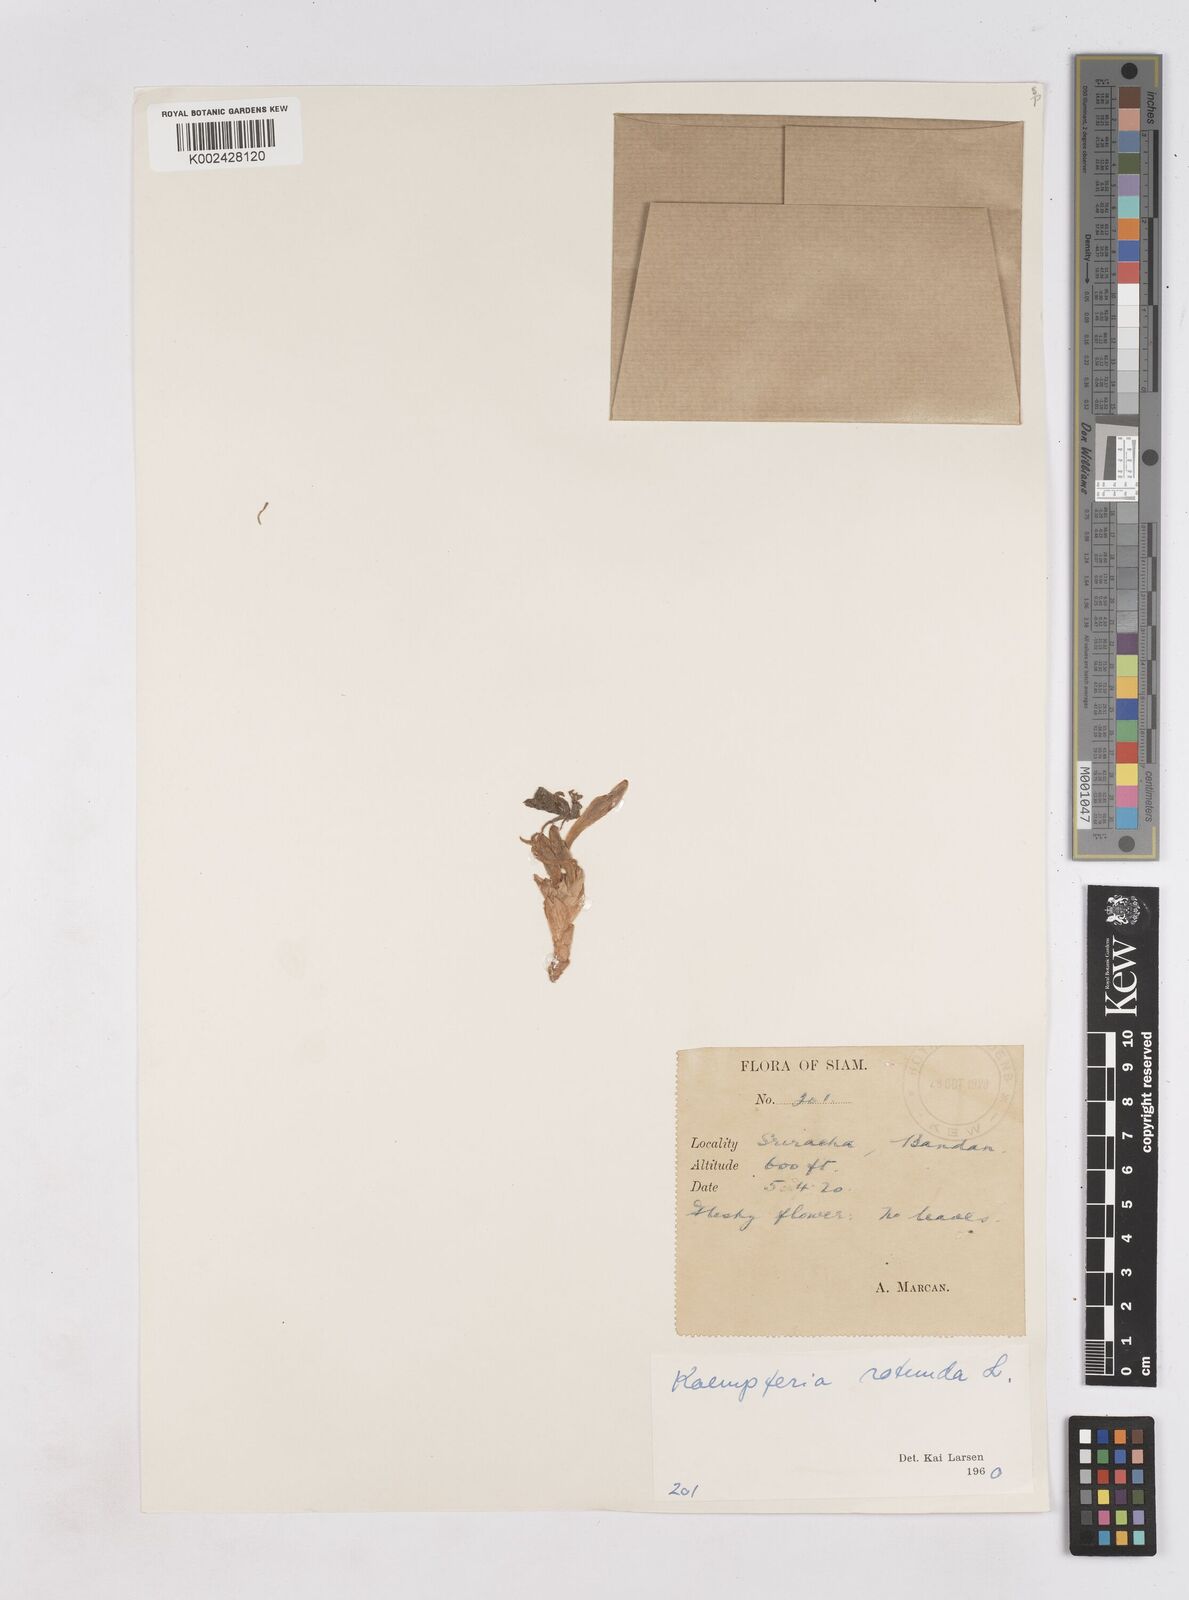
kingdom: Plantae
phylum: Tracheophyta
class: Liliopsida
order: Zingiberales
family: Zingiberaceae
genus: Kaempferia
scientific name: Kaempferia rotunda
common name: Tropical-crocus
